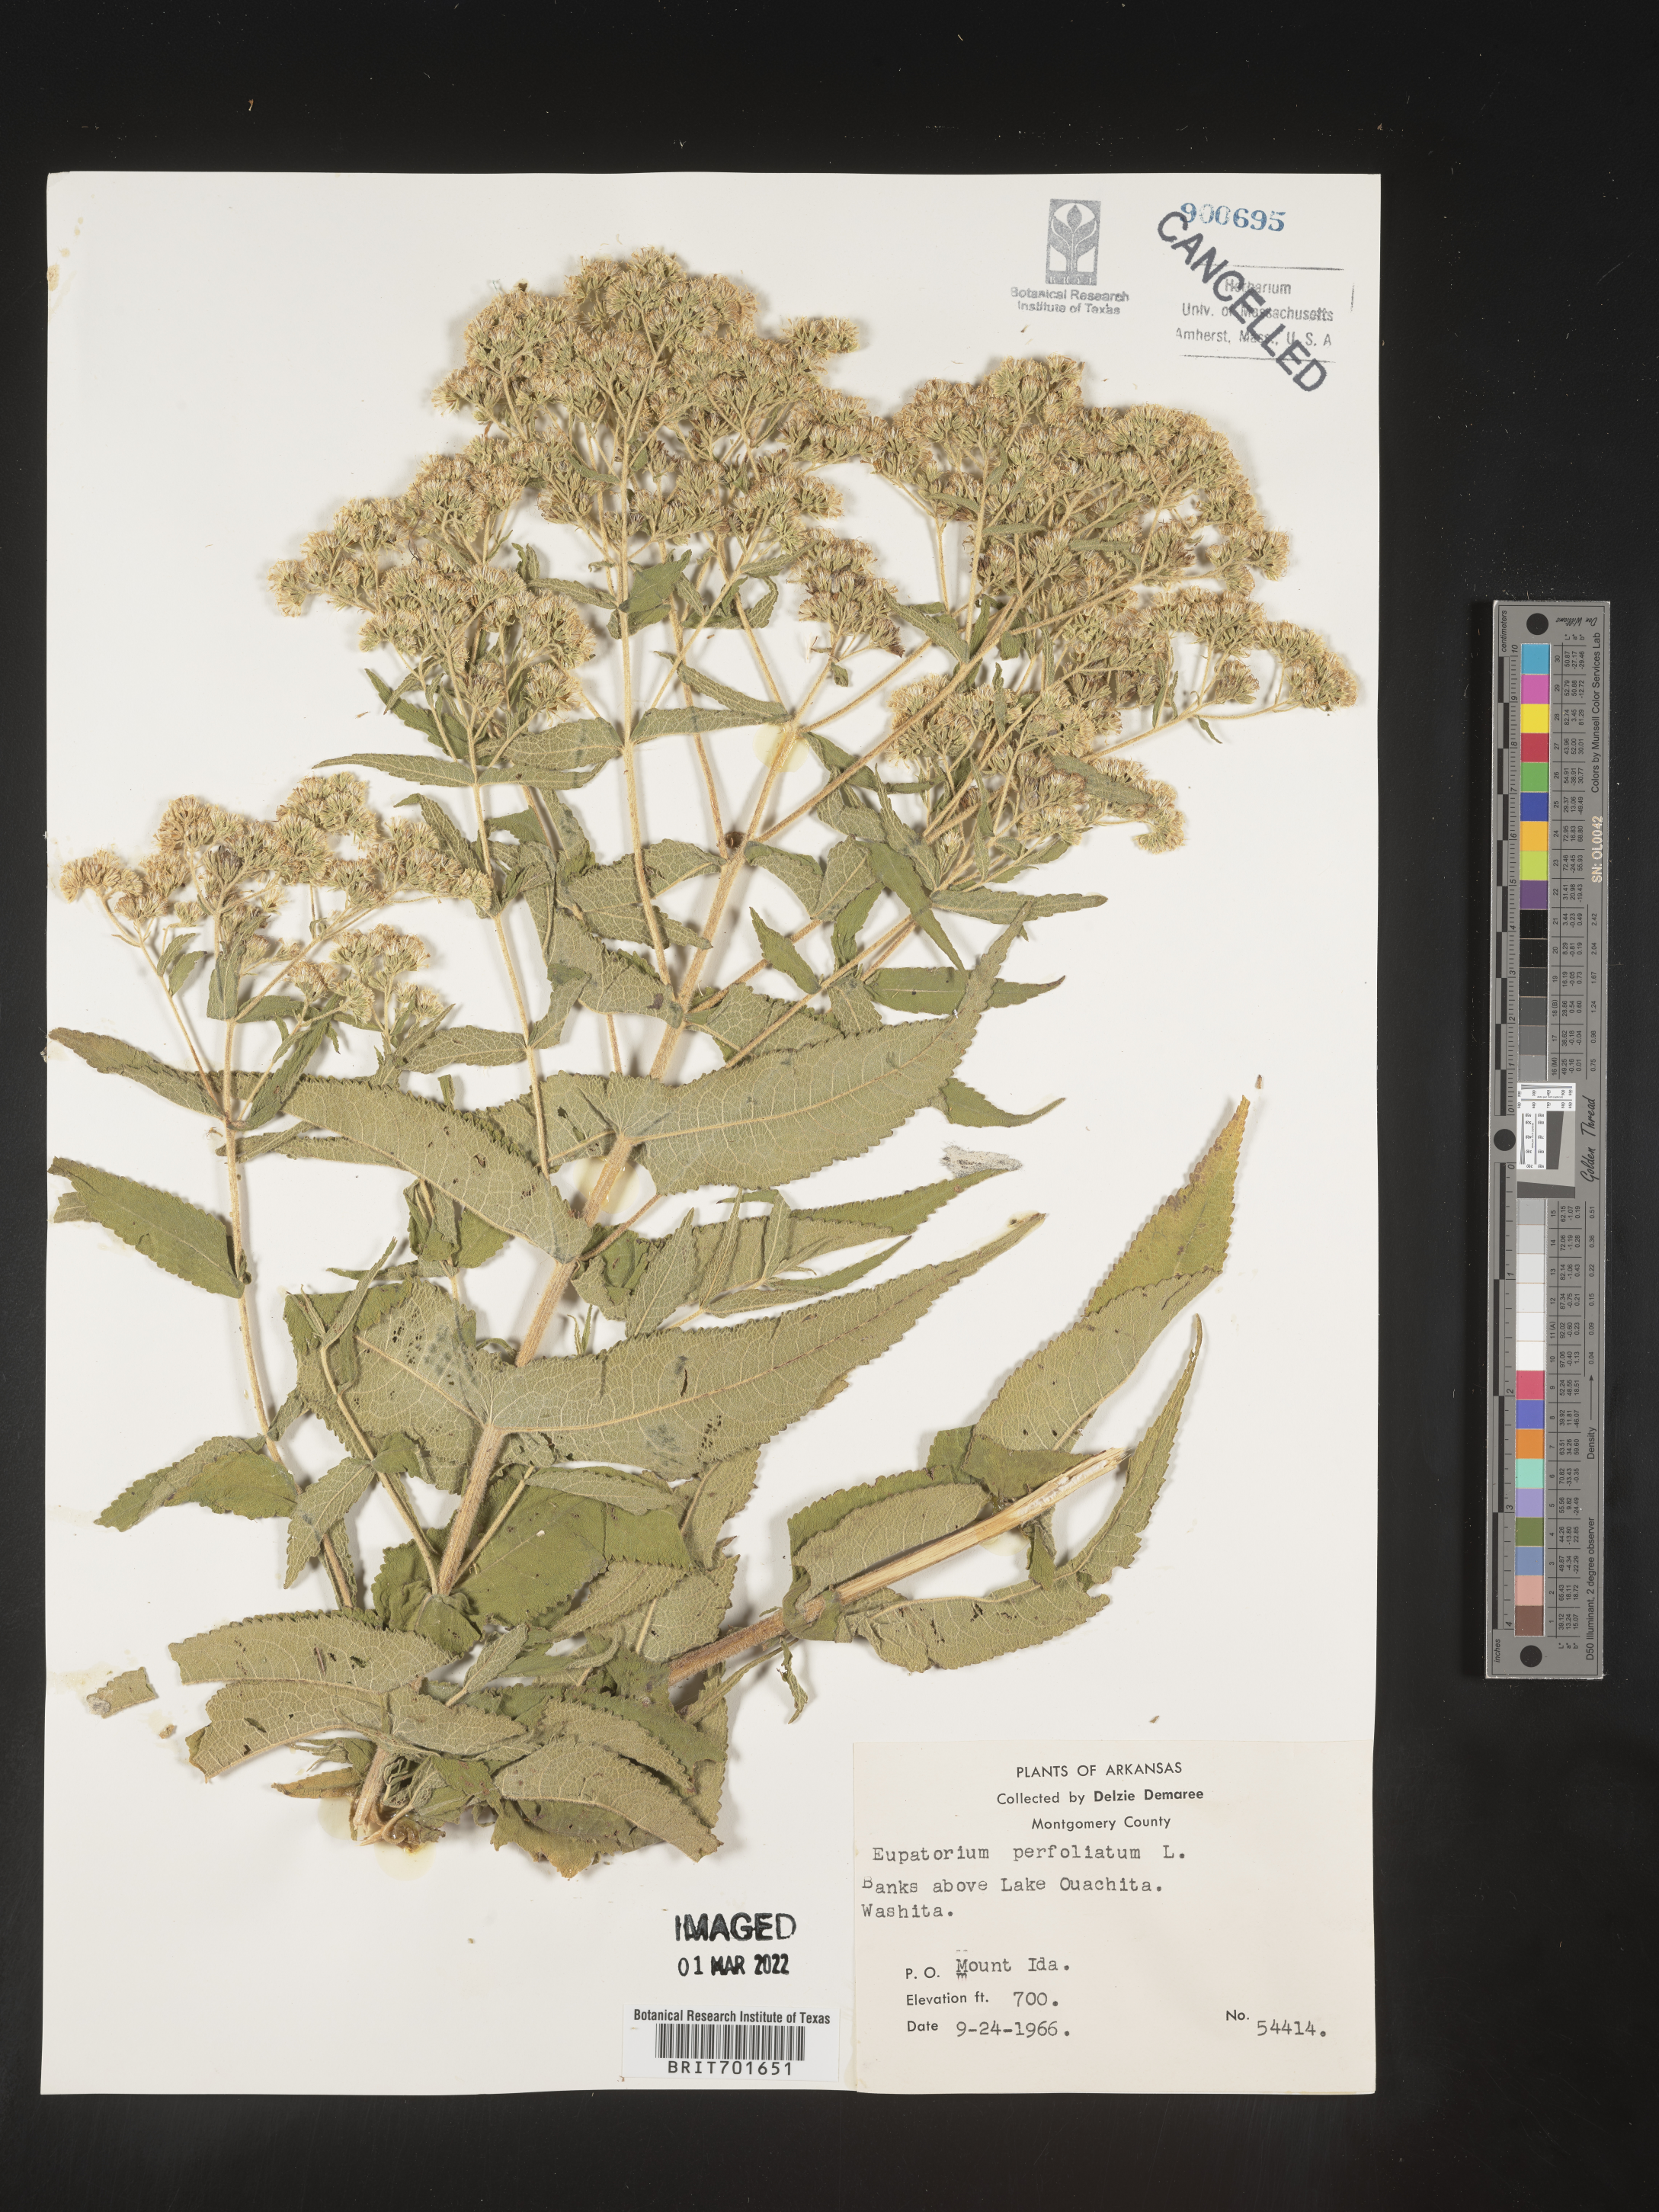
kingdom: Plantae
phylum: Tracheophyta
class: Magnoliopsida
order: Asterales
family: Asteraceae
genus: Eupatorium
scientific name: Eupatorium perfoliatum
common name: Boneset
